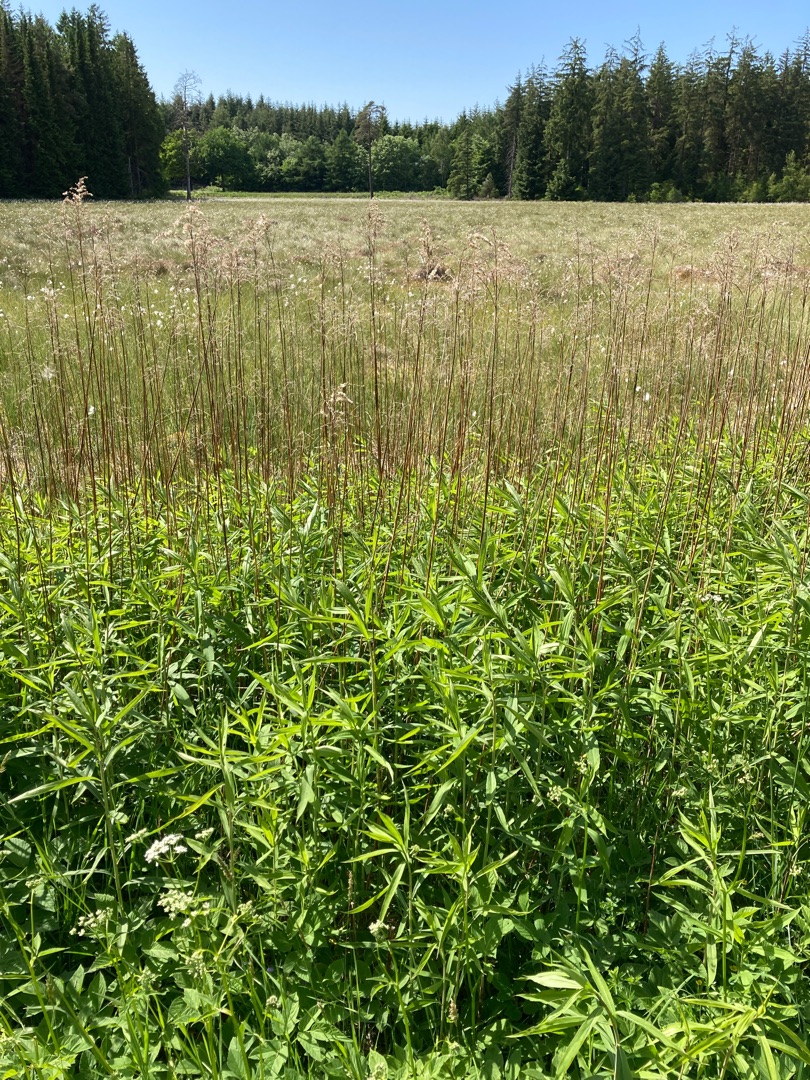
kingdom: Plantae
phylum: Tracheophyta
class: Magnoliopsida
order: Asterales
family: Asteraceae
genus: Solidago
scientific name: Solidago gigantea
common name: Sildig gyldenris
